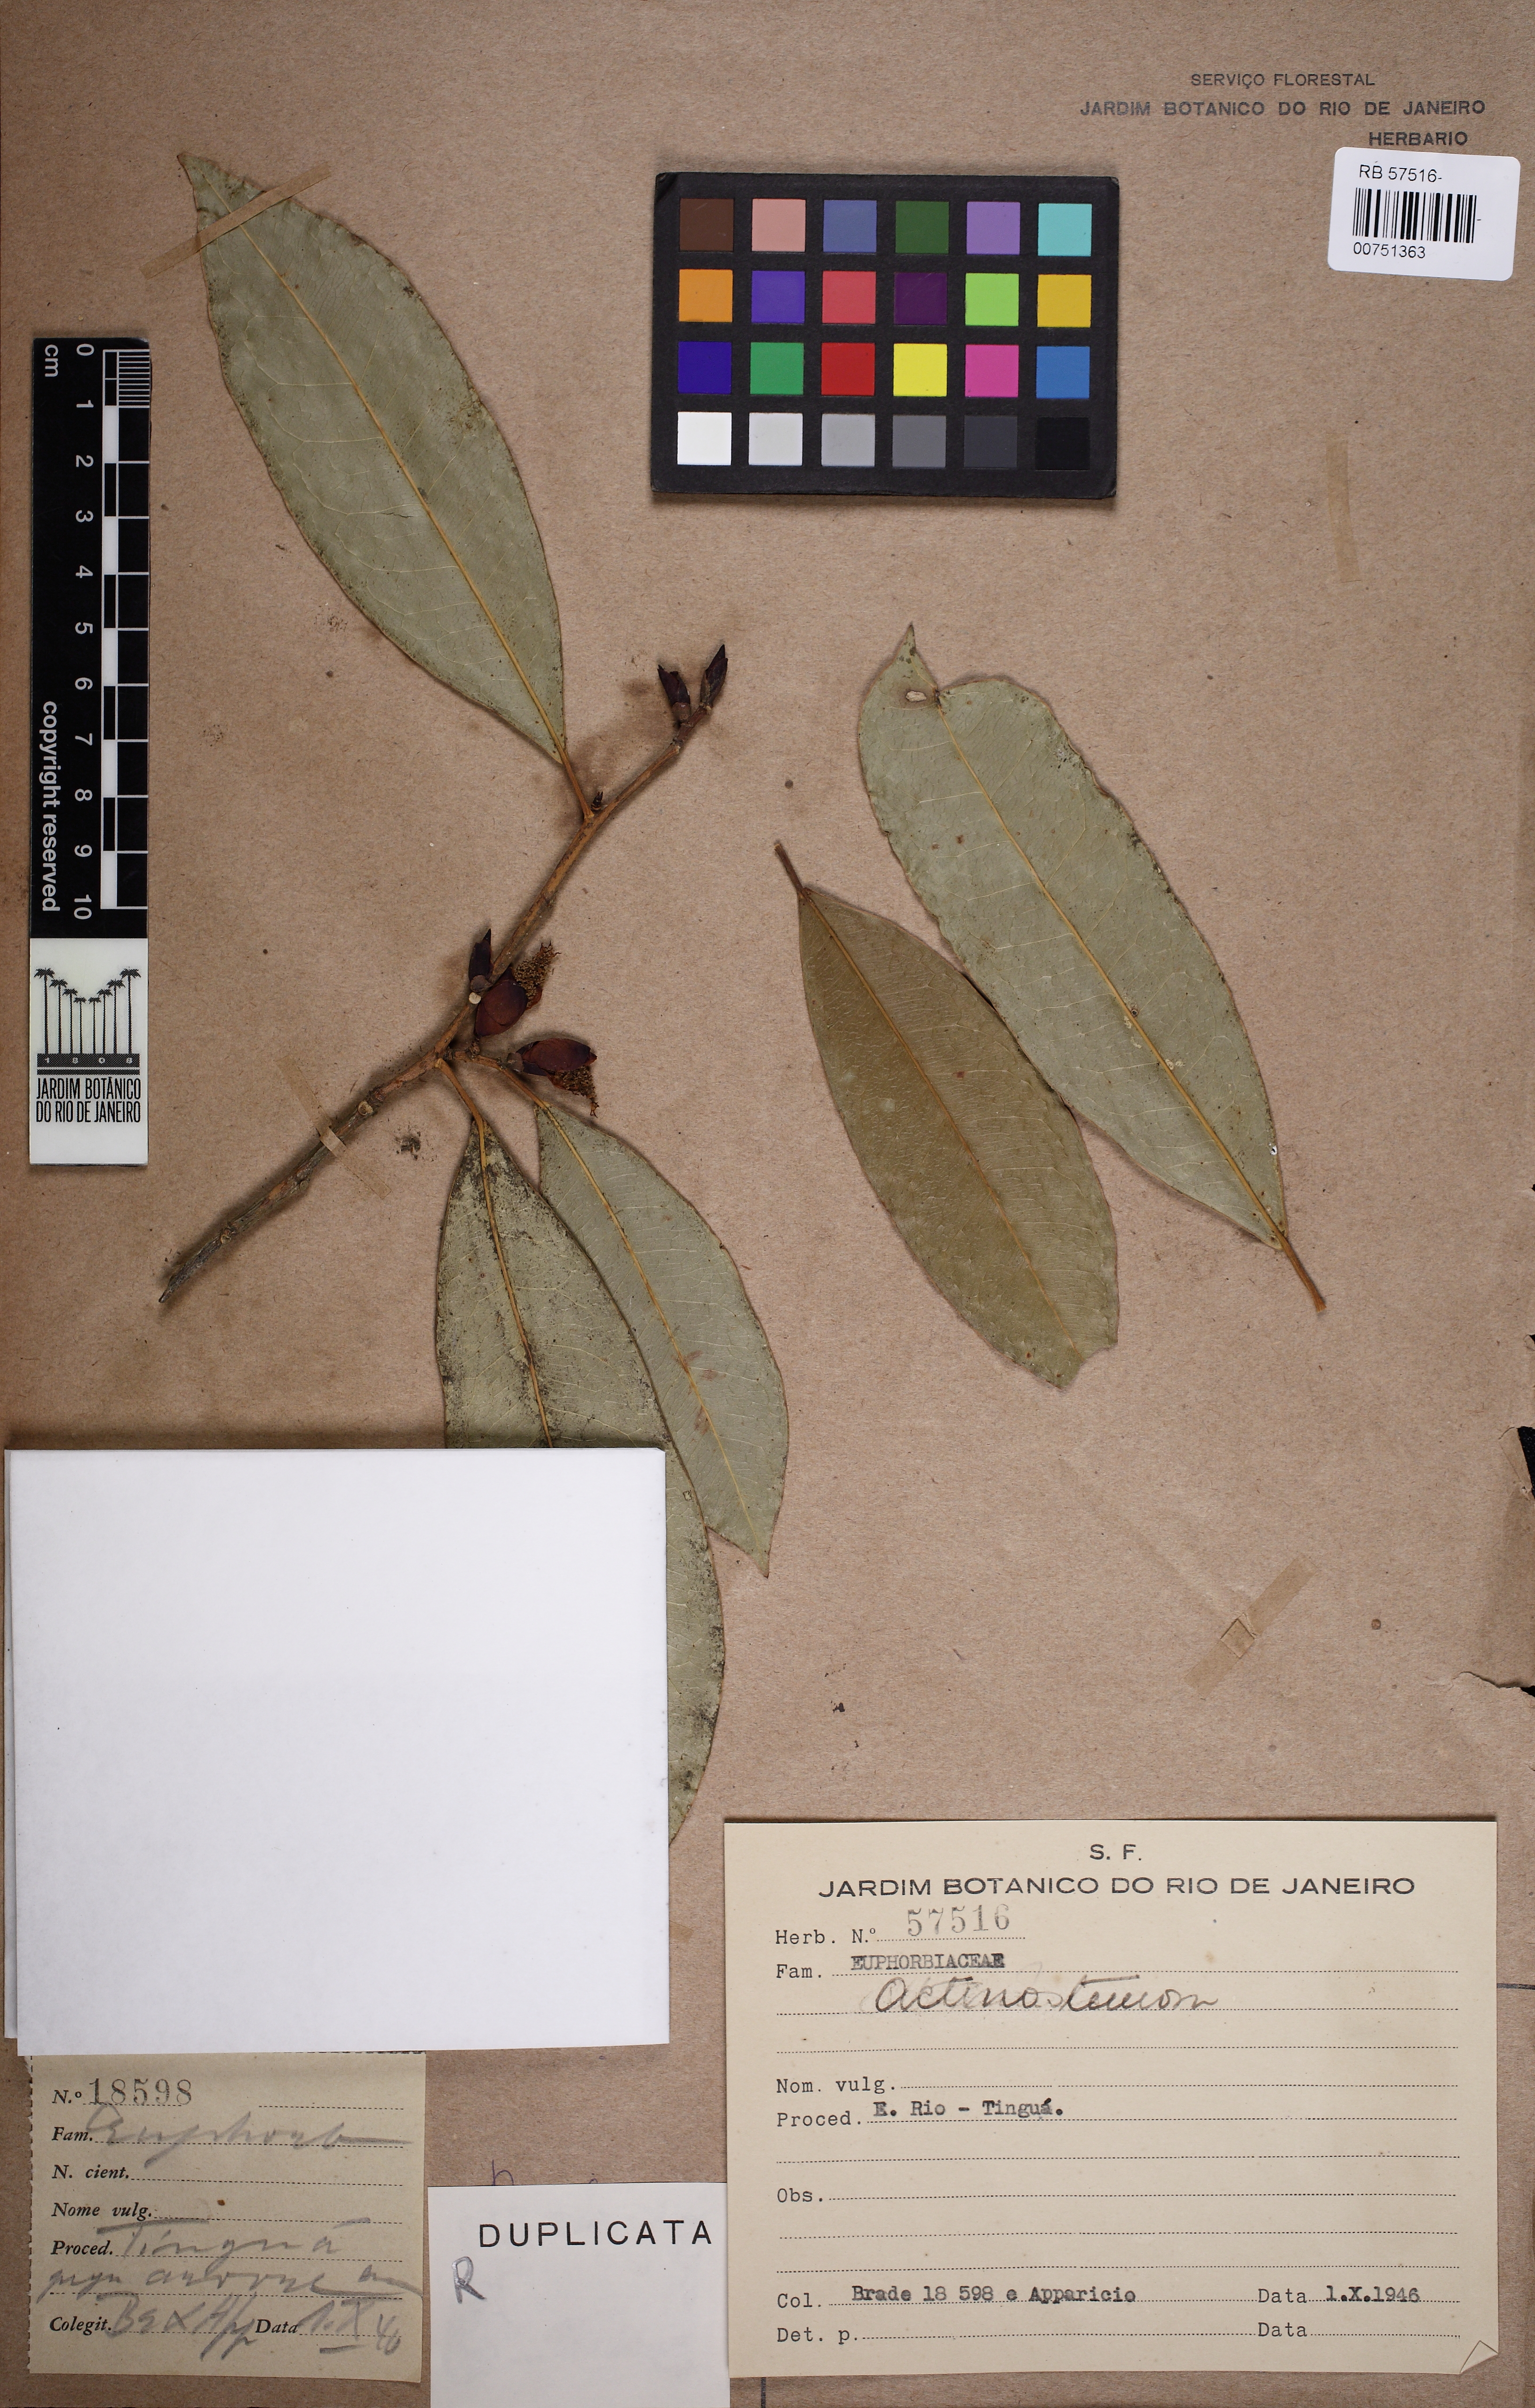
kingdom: Plantae
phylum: Tracheophyta
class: Magnoliopsida
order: Malpighiales
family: Euphorbiaceae
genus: Actinostemon
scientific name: Actinostemon concolor
